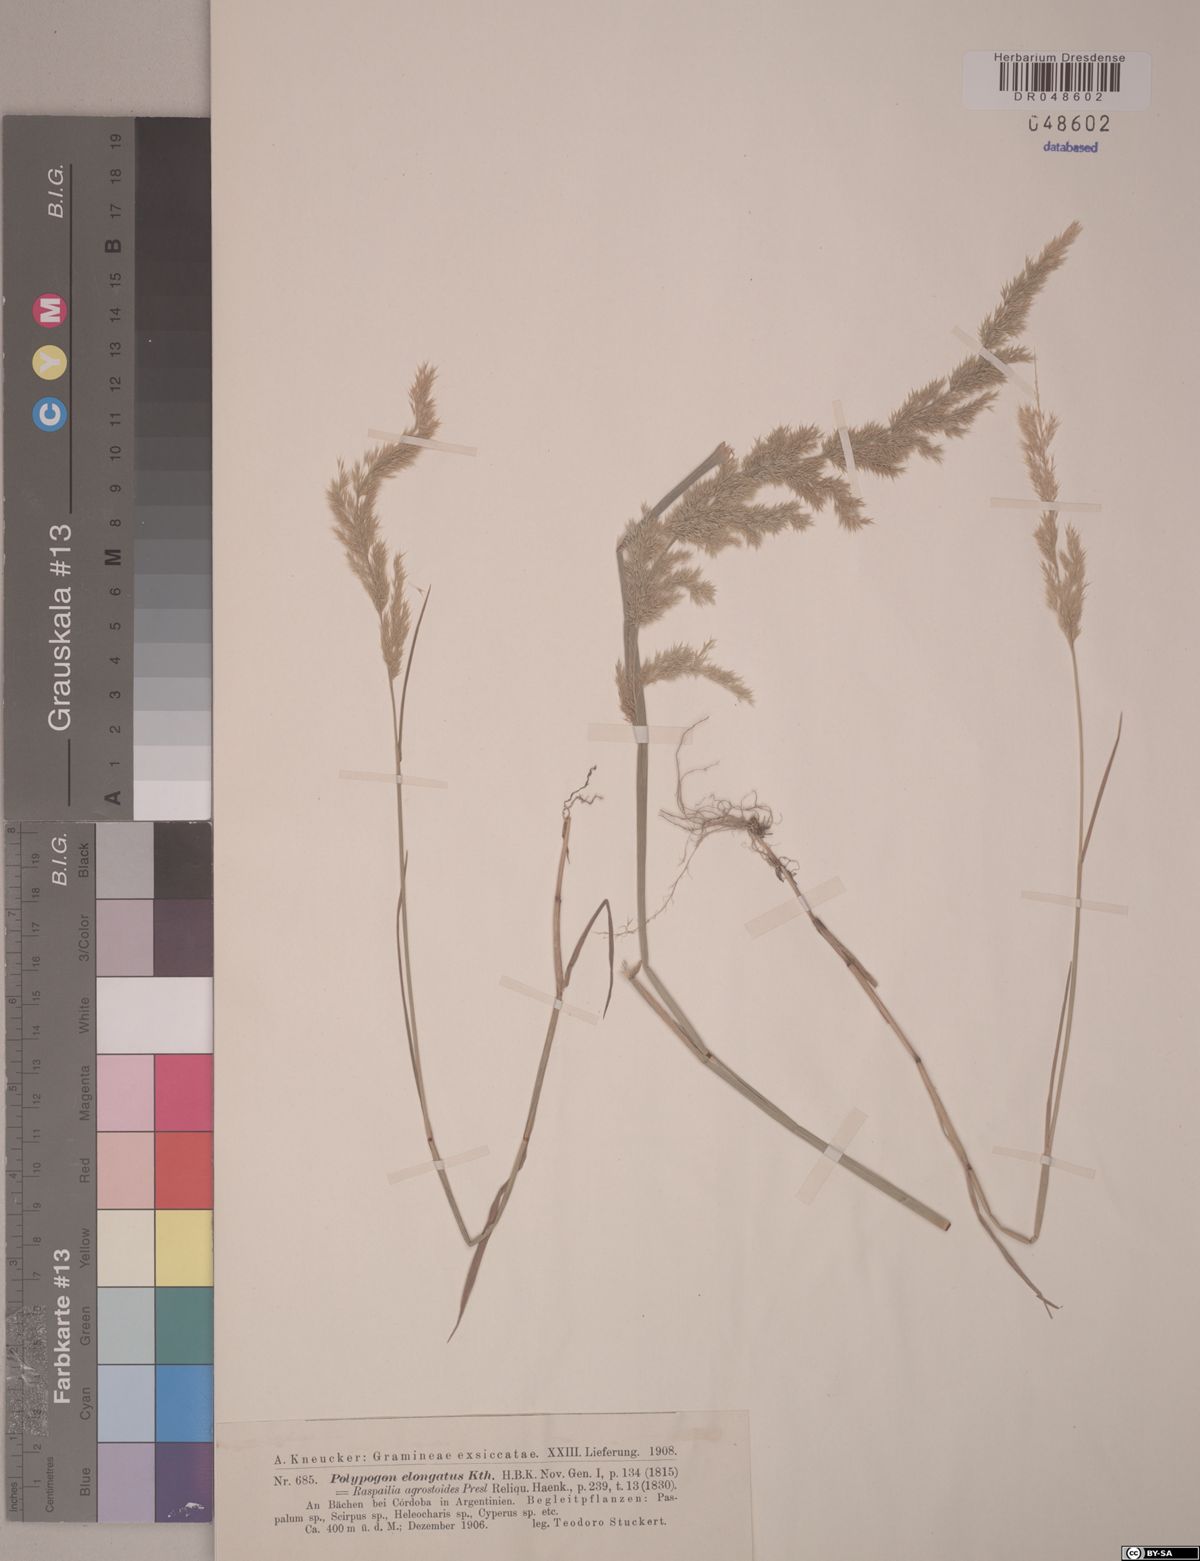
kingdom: Plantae
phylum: Tracheophyta
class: Liliopsida
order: Poales
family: Poaceae
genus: Polypogon
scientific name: Polypogon elongatus
